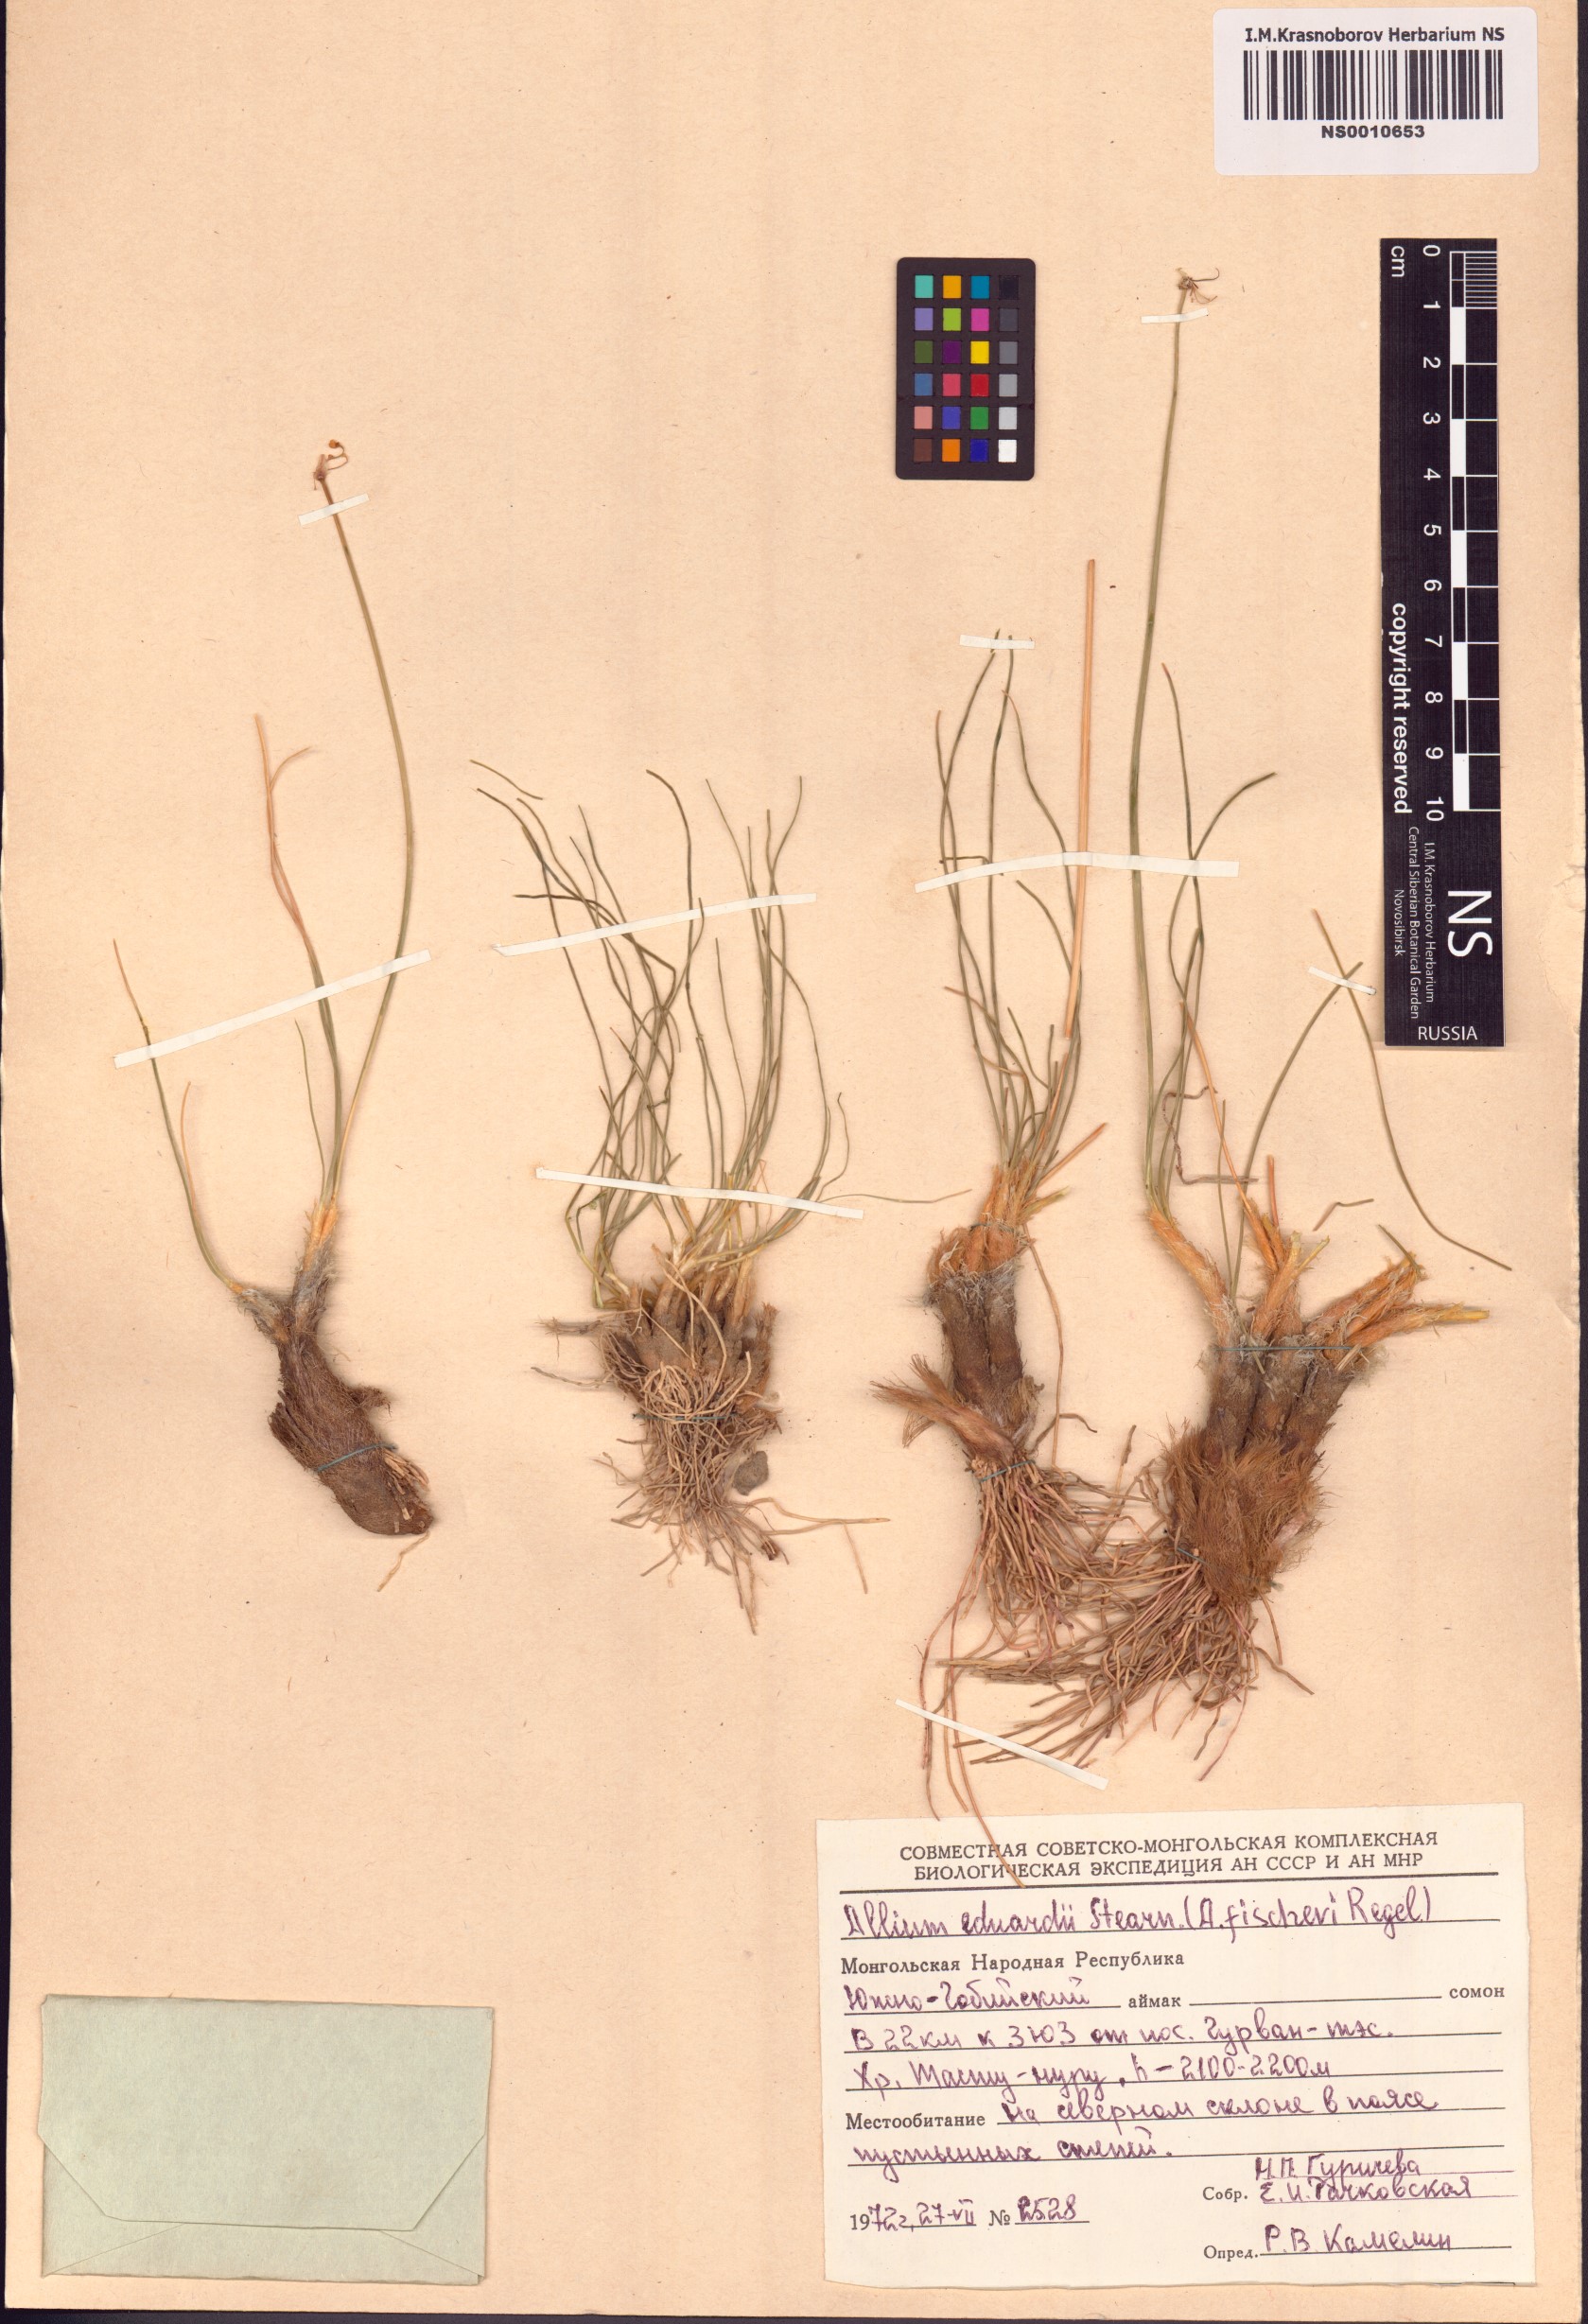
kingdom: Plantae
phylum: Tracheophyta
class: Liliopsida
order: Asparagales
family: Amaryllidaceae
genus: Allium
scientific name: Allium eduardi
